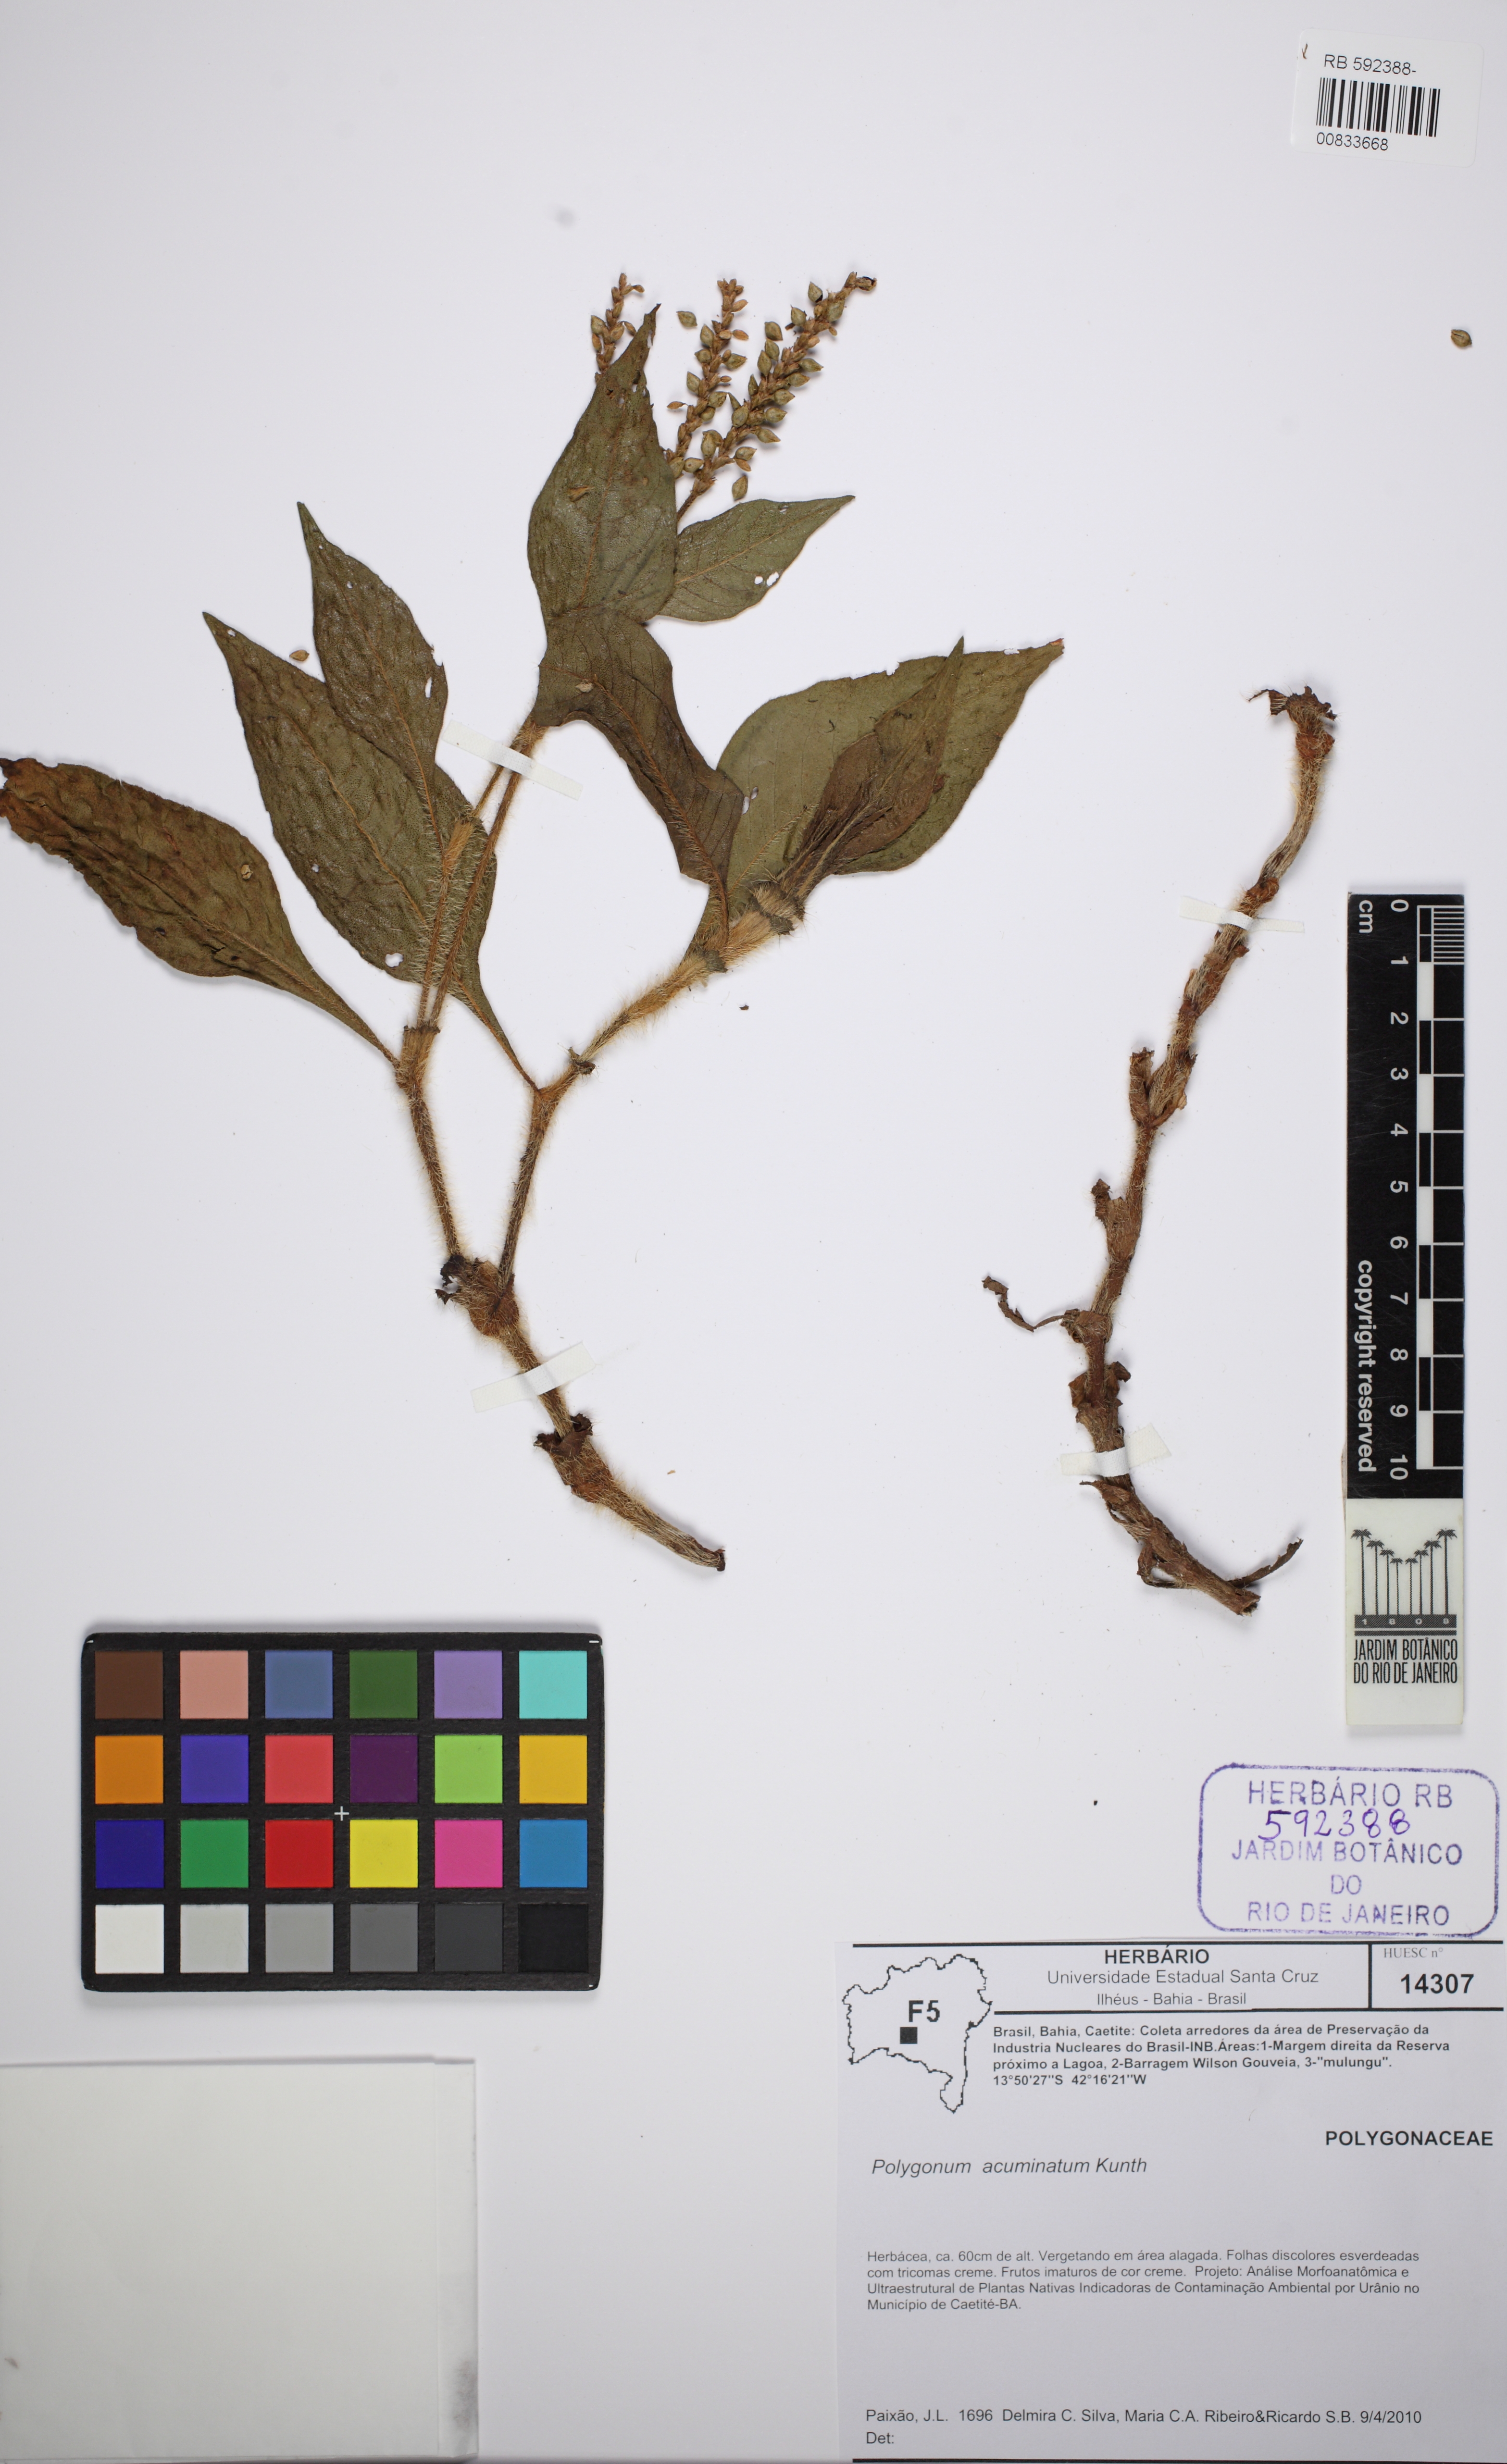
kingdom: Plantae
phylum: Tracheophyta
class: Magnoliopsida
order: Caryophyllales
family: Polygonaceae
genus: Persicaria
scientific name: Persicaria acuminata
